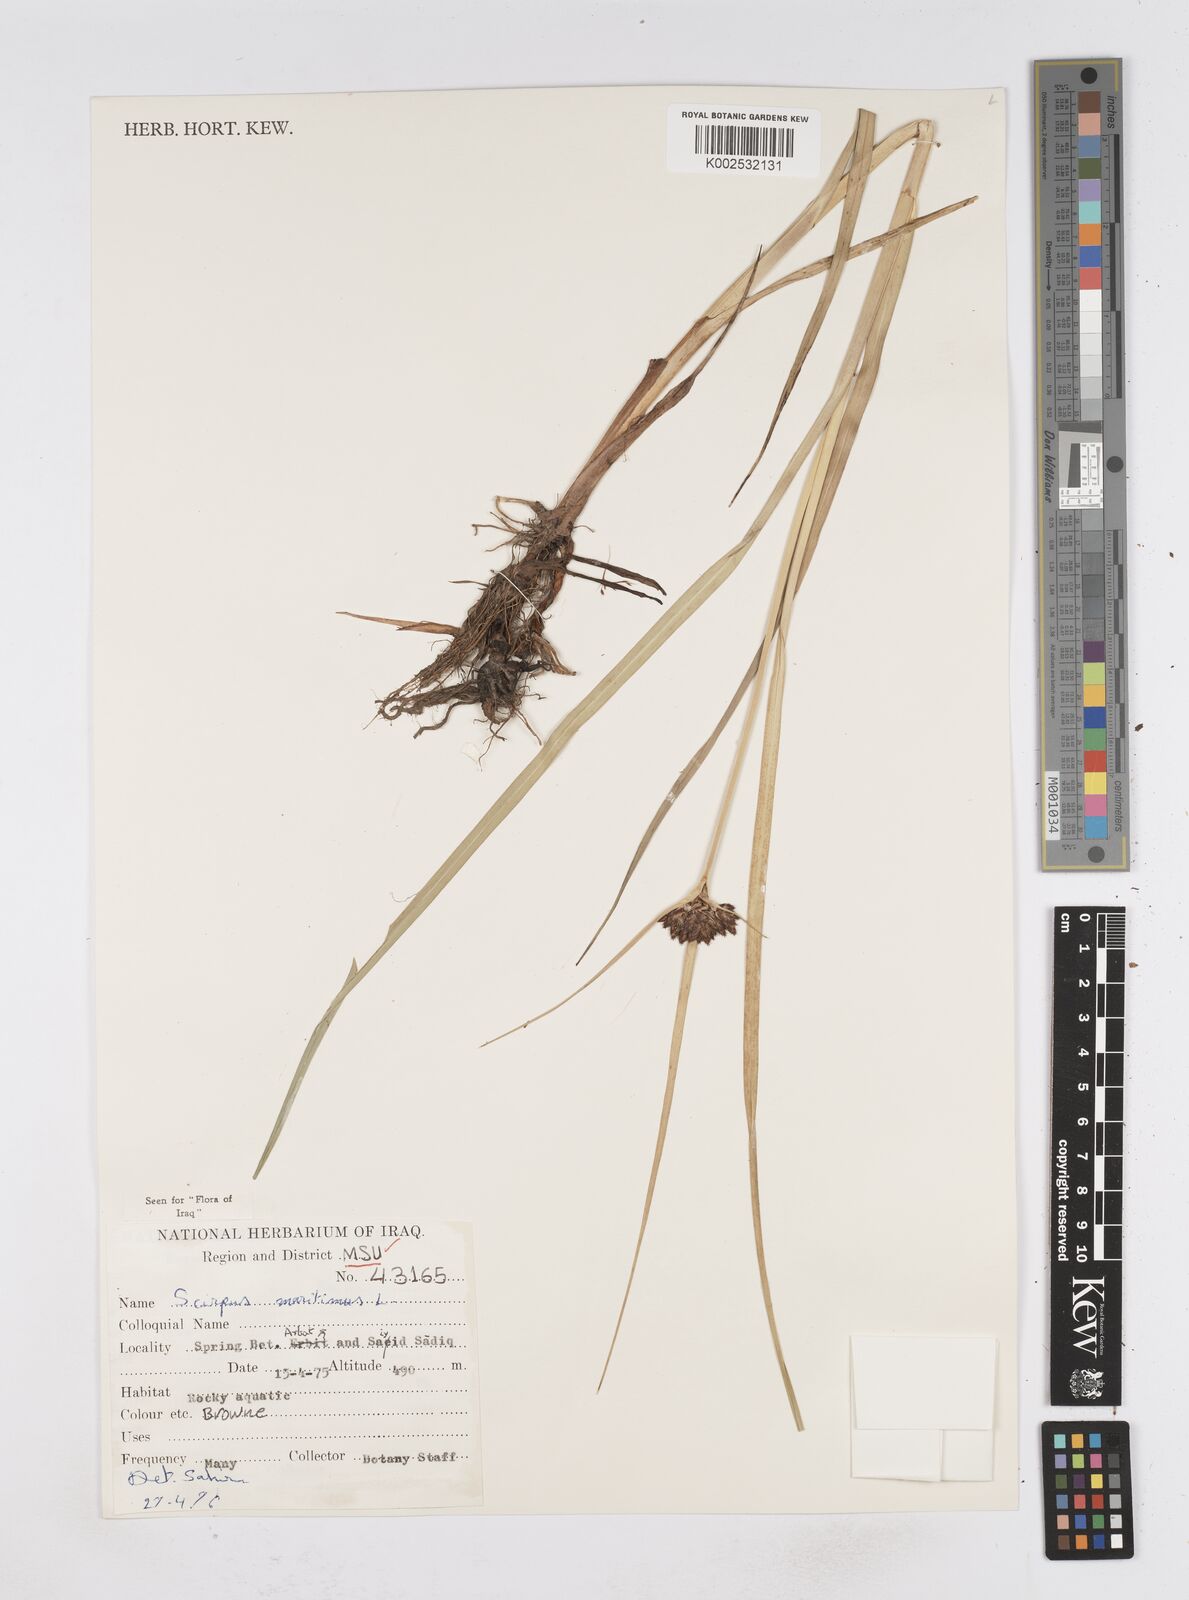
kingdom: Plantae
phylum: Tracheophyta
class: Liliopsida
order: Poales
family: Cyperaceae
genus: Bolboschoenus
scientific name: Bolboschoenus maritimus
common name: Sea club-rush
